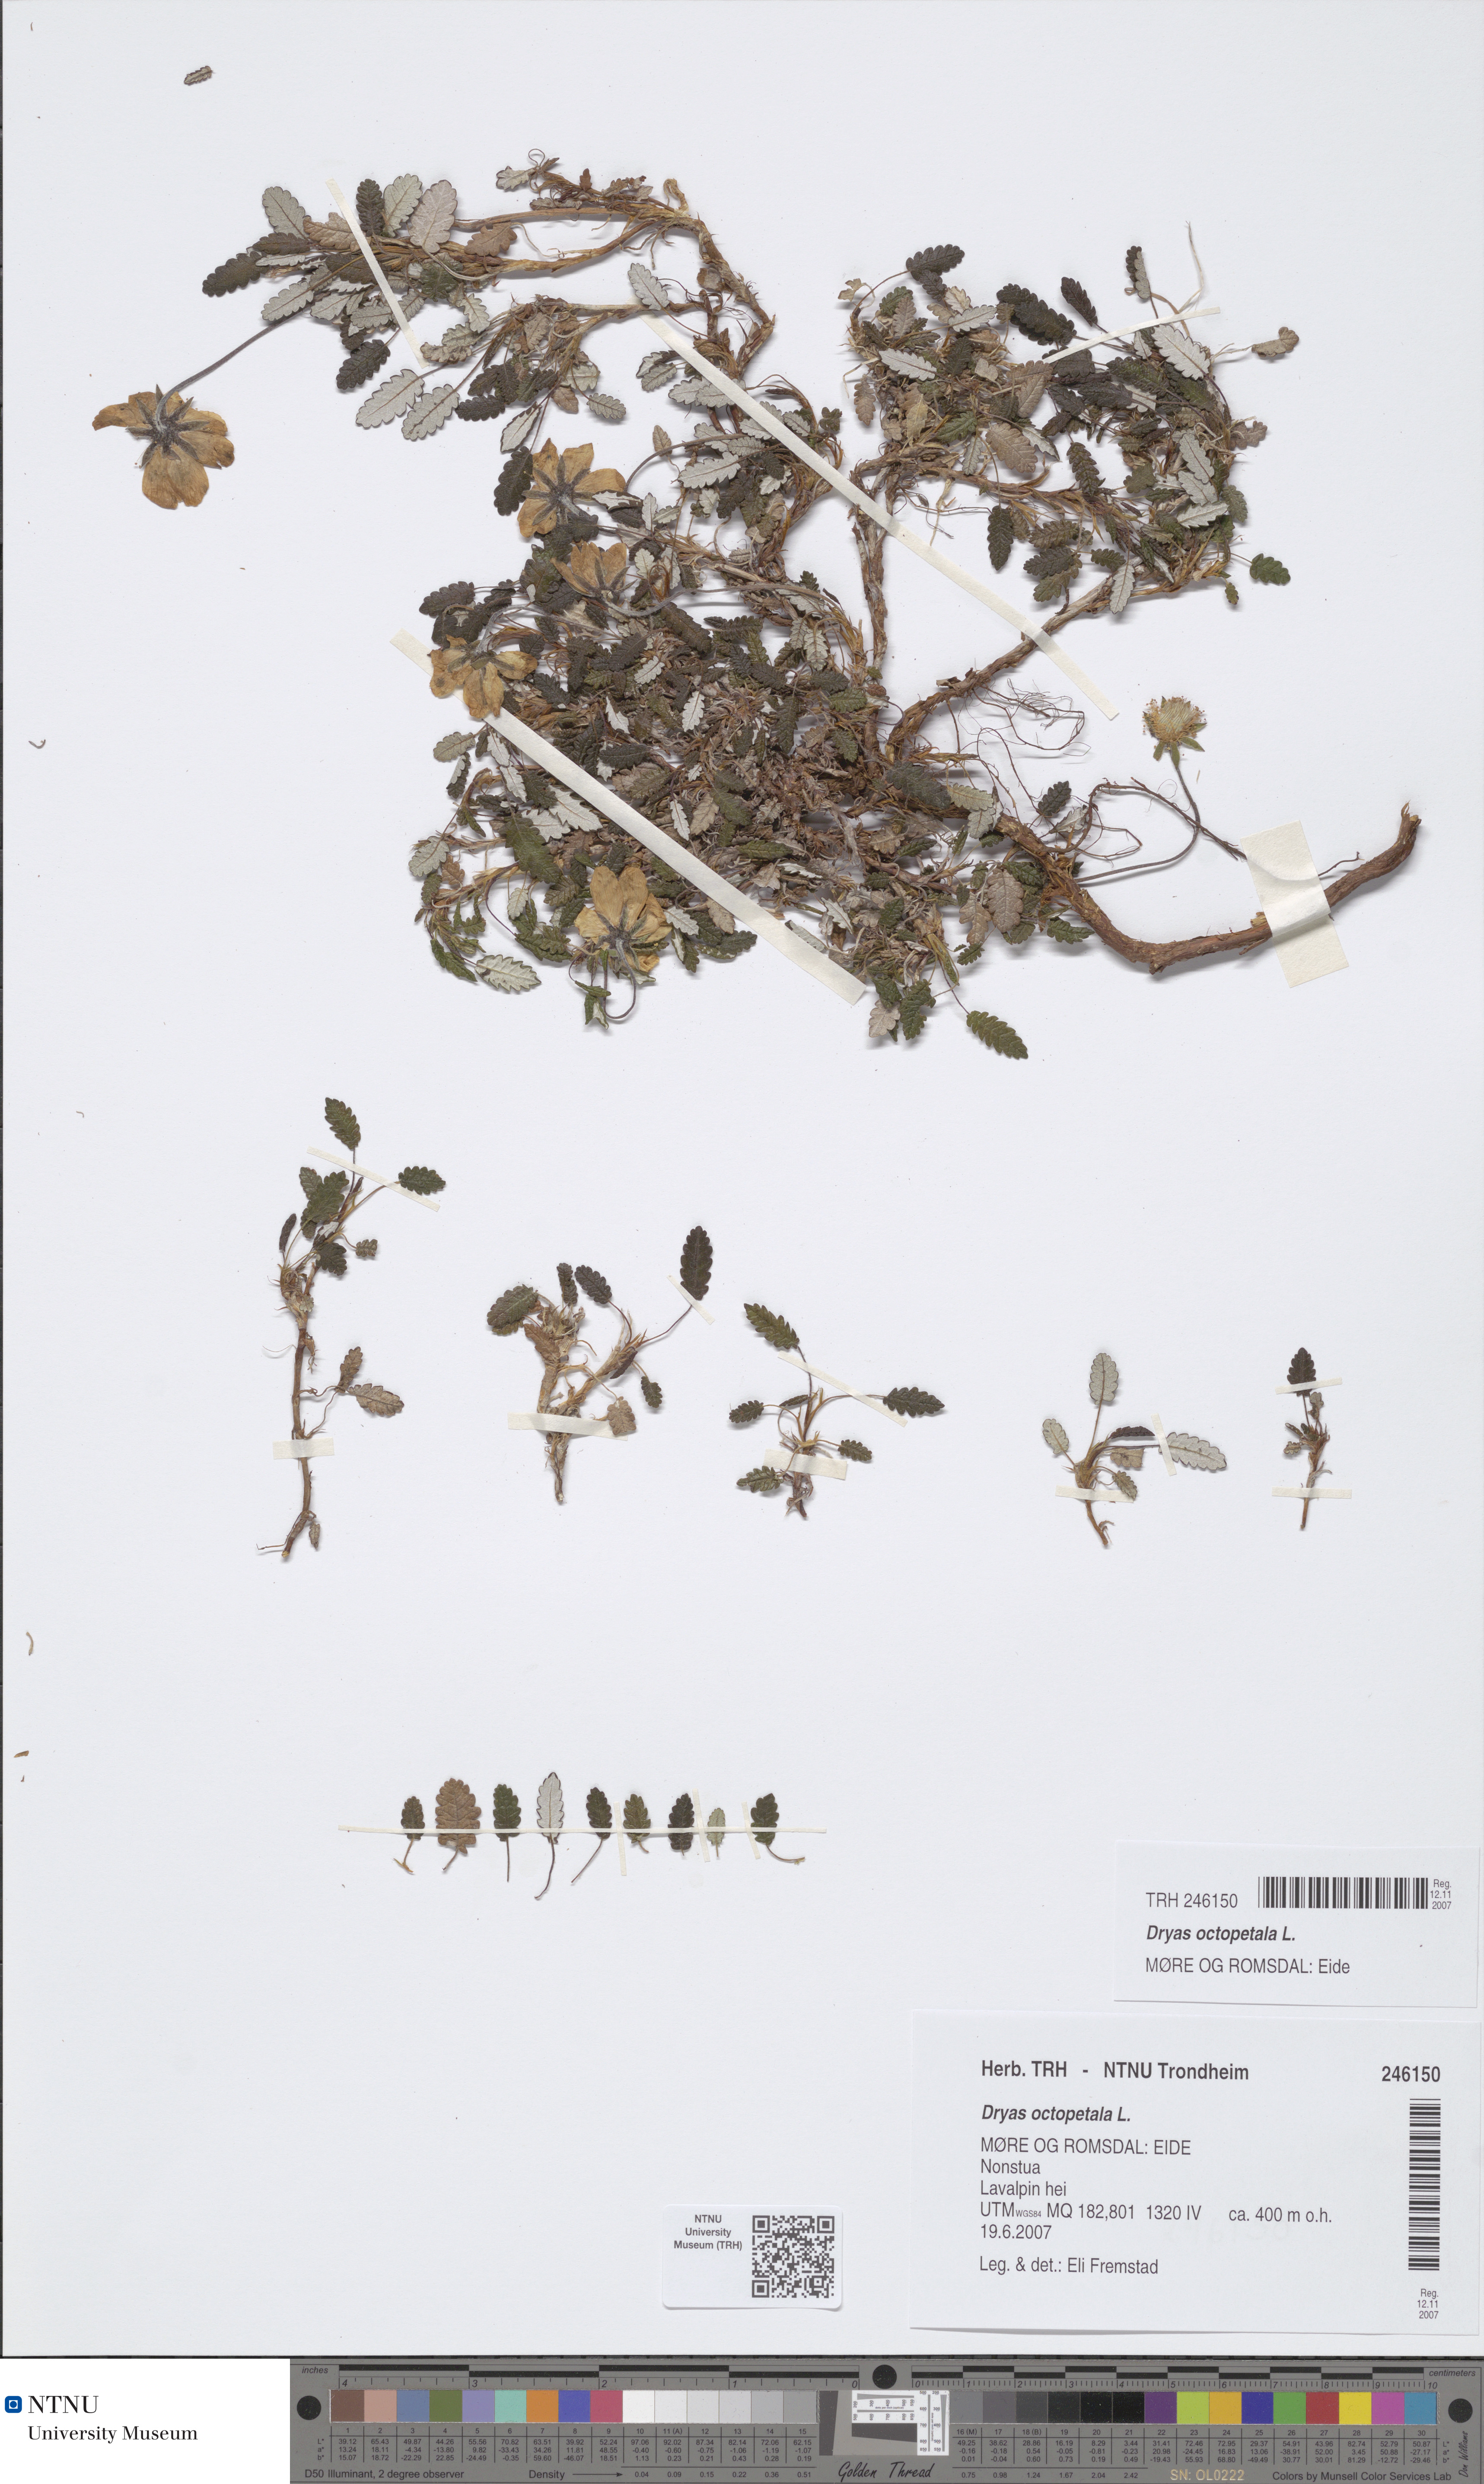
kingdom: Plantae
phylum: Tracheophyta
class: Magnoliopsida
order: Rosales
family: Rosaceae
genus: Dryas
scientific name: Dryas octopetala
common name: Eight-petal mountain-avens
